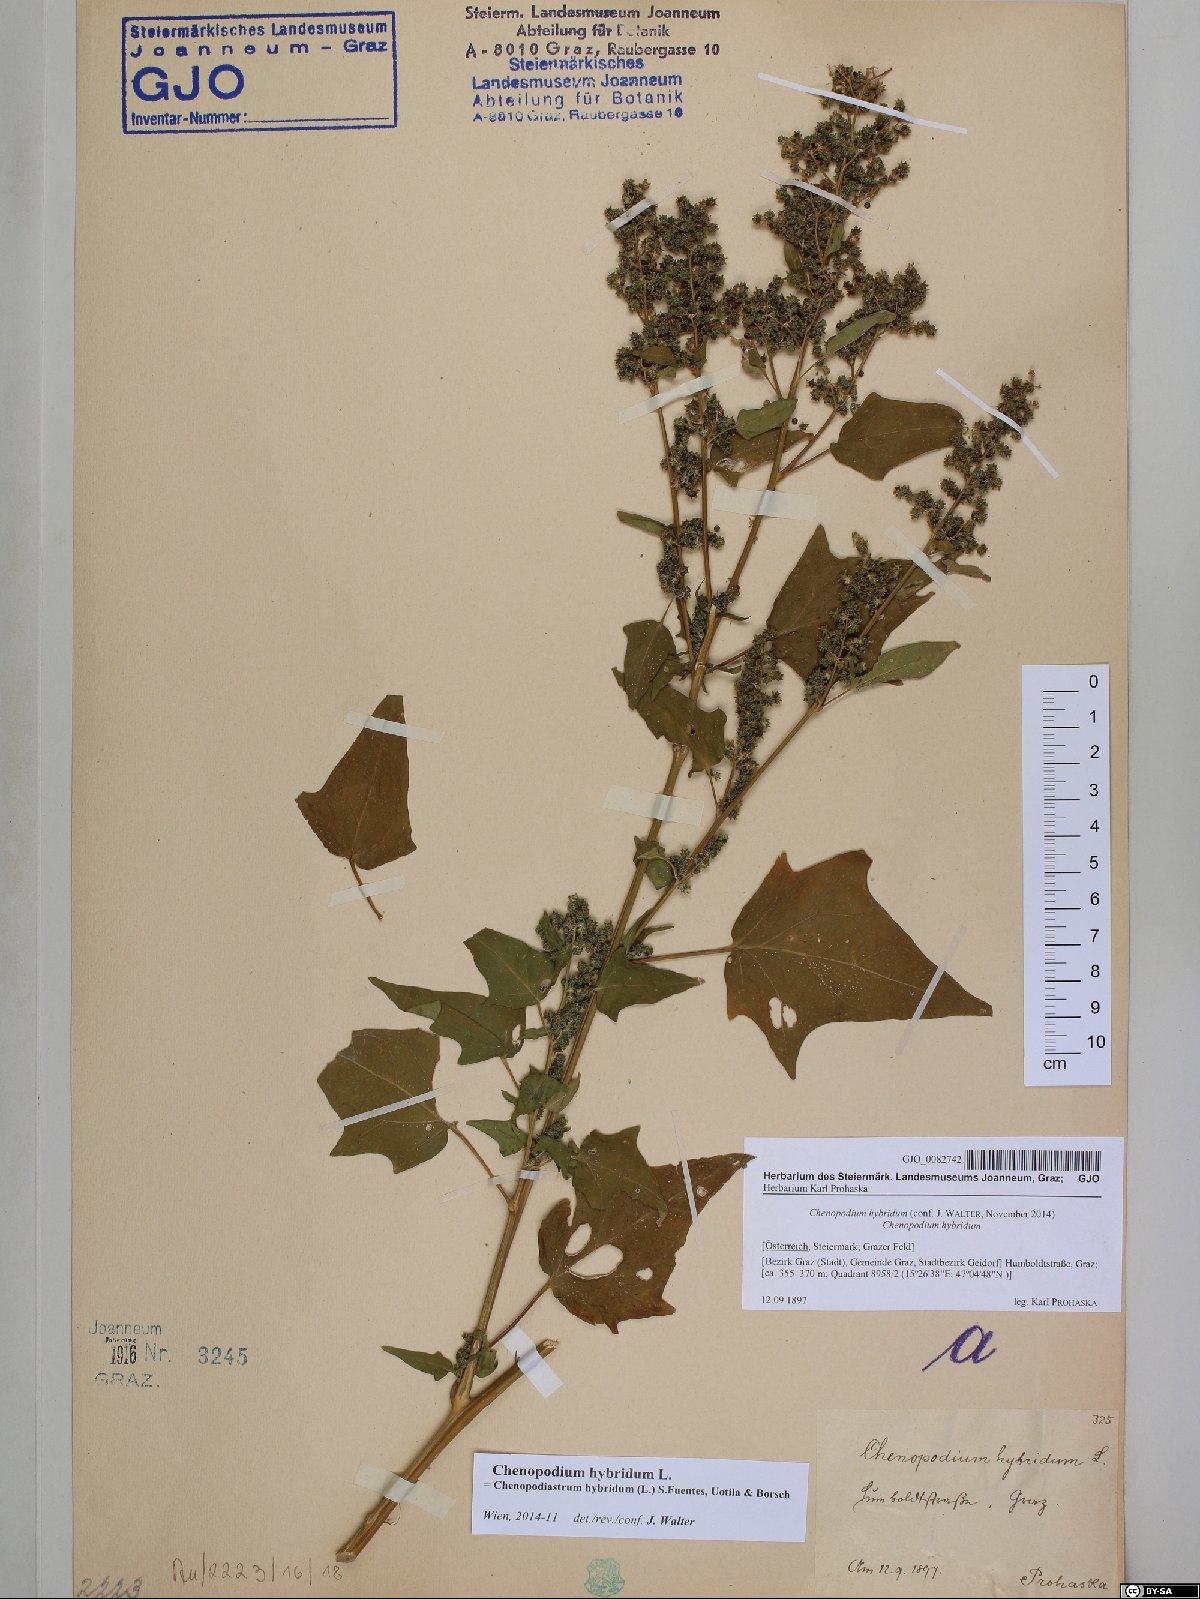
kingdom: Plantae
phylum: Tracheophyta
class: Magnoliopsida
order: Caryophyllales
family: Amaranthaceae
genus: Chenopodiastrum
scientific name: Chenopodiastrum hybridum
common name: Mapleleaf goosefoot
